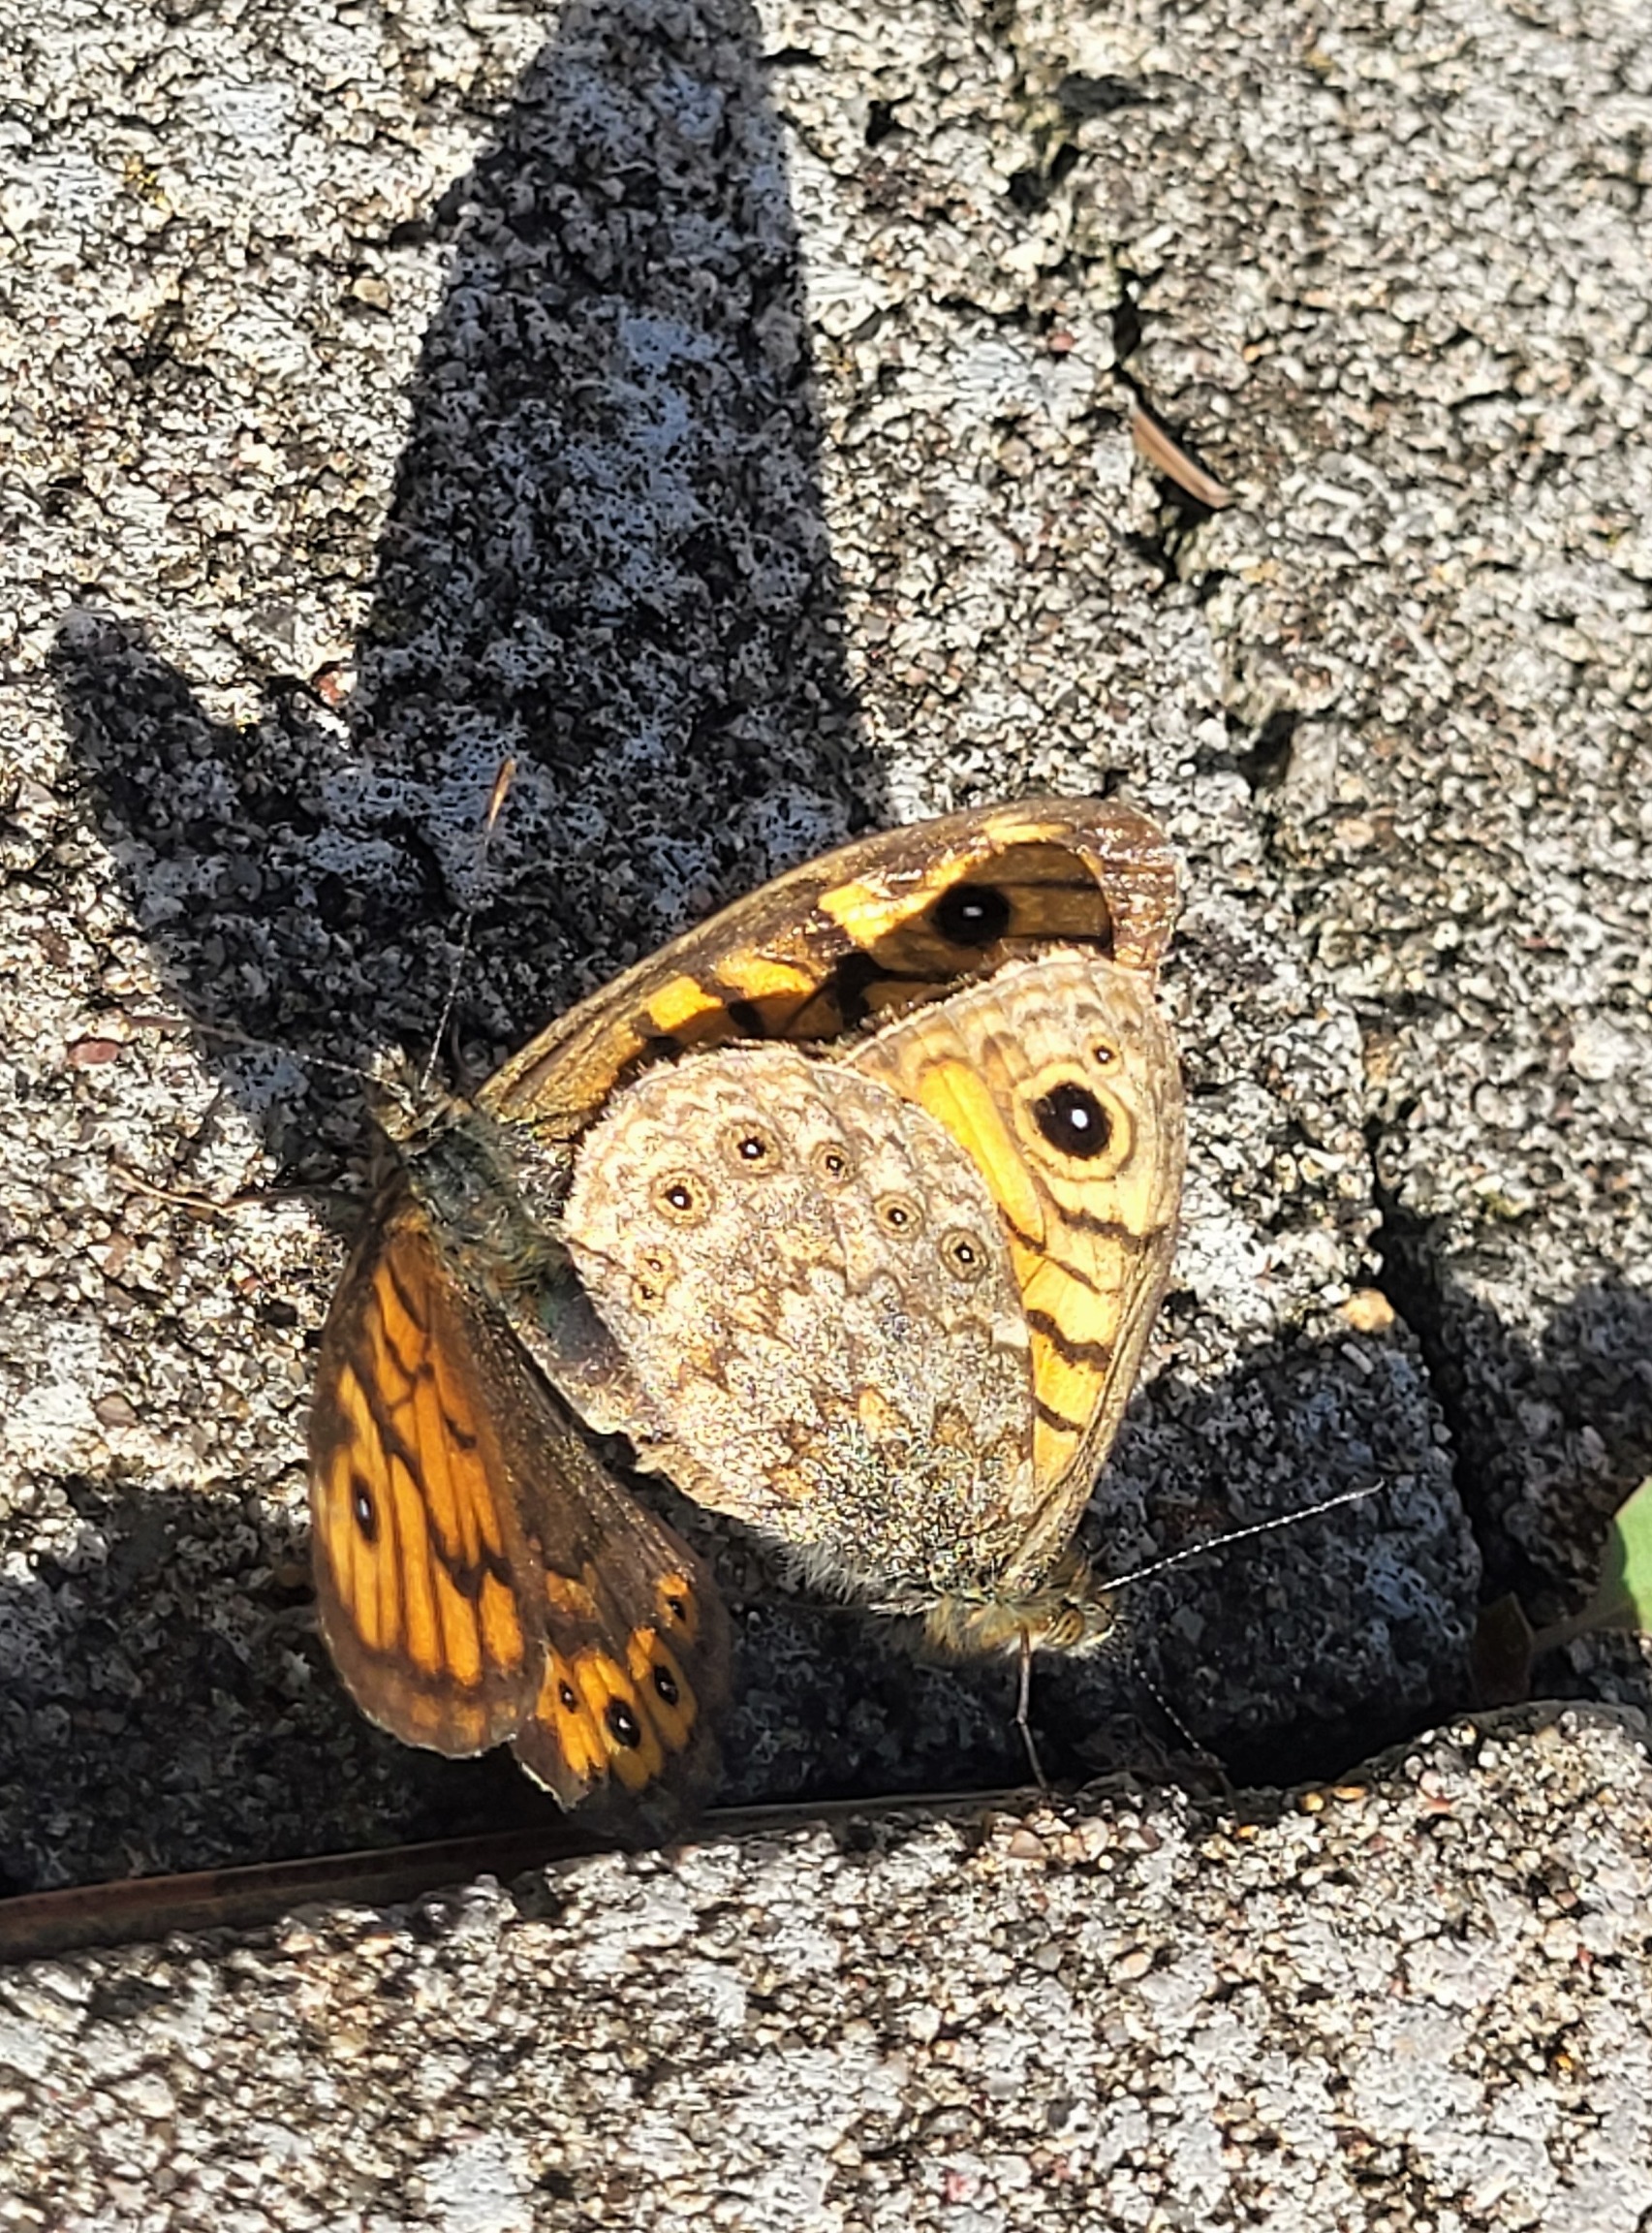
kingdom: Animalia
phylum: Arthropoda
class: Insecta
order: Lepidoptera
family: Nymphalidae
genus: Pararge
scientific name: Pararge Lasiommata megera
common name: Vejrandøje
